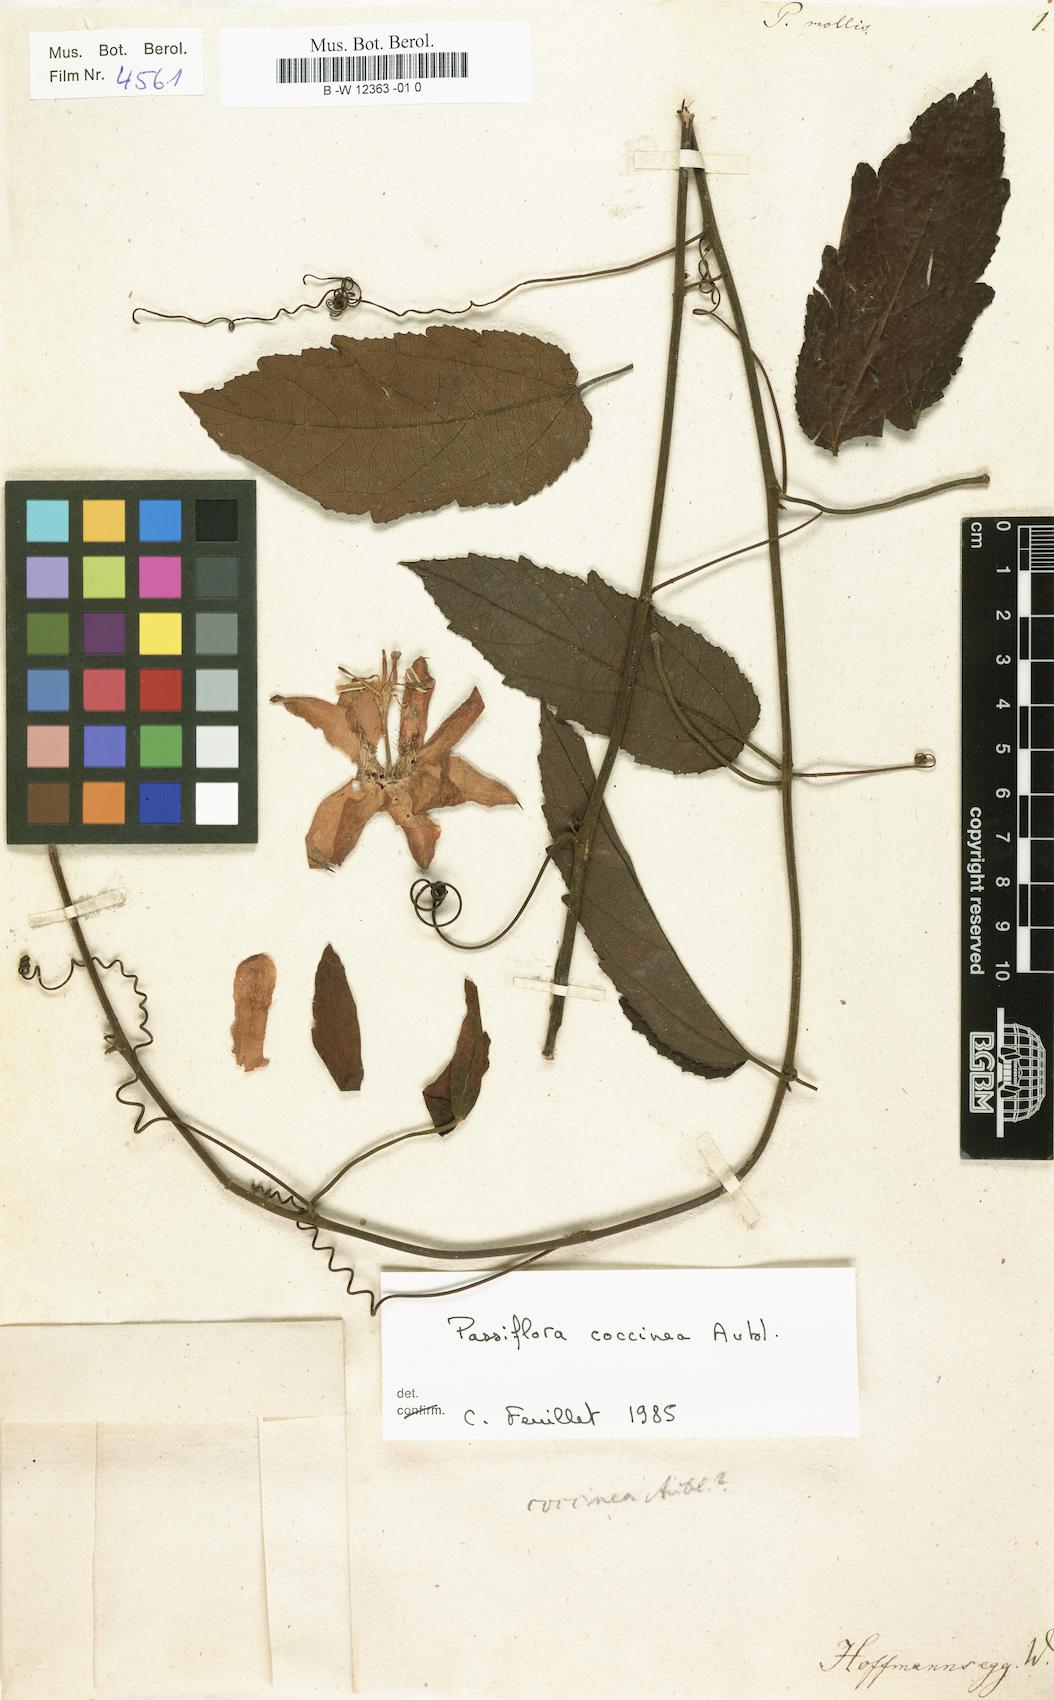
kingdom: Plantae
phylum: Tracheophyta
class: Magnoliopsida
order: Malpighiales
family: Passifloraceae
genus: Passiflora
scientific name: Passiflora mollis
